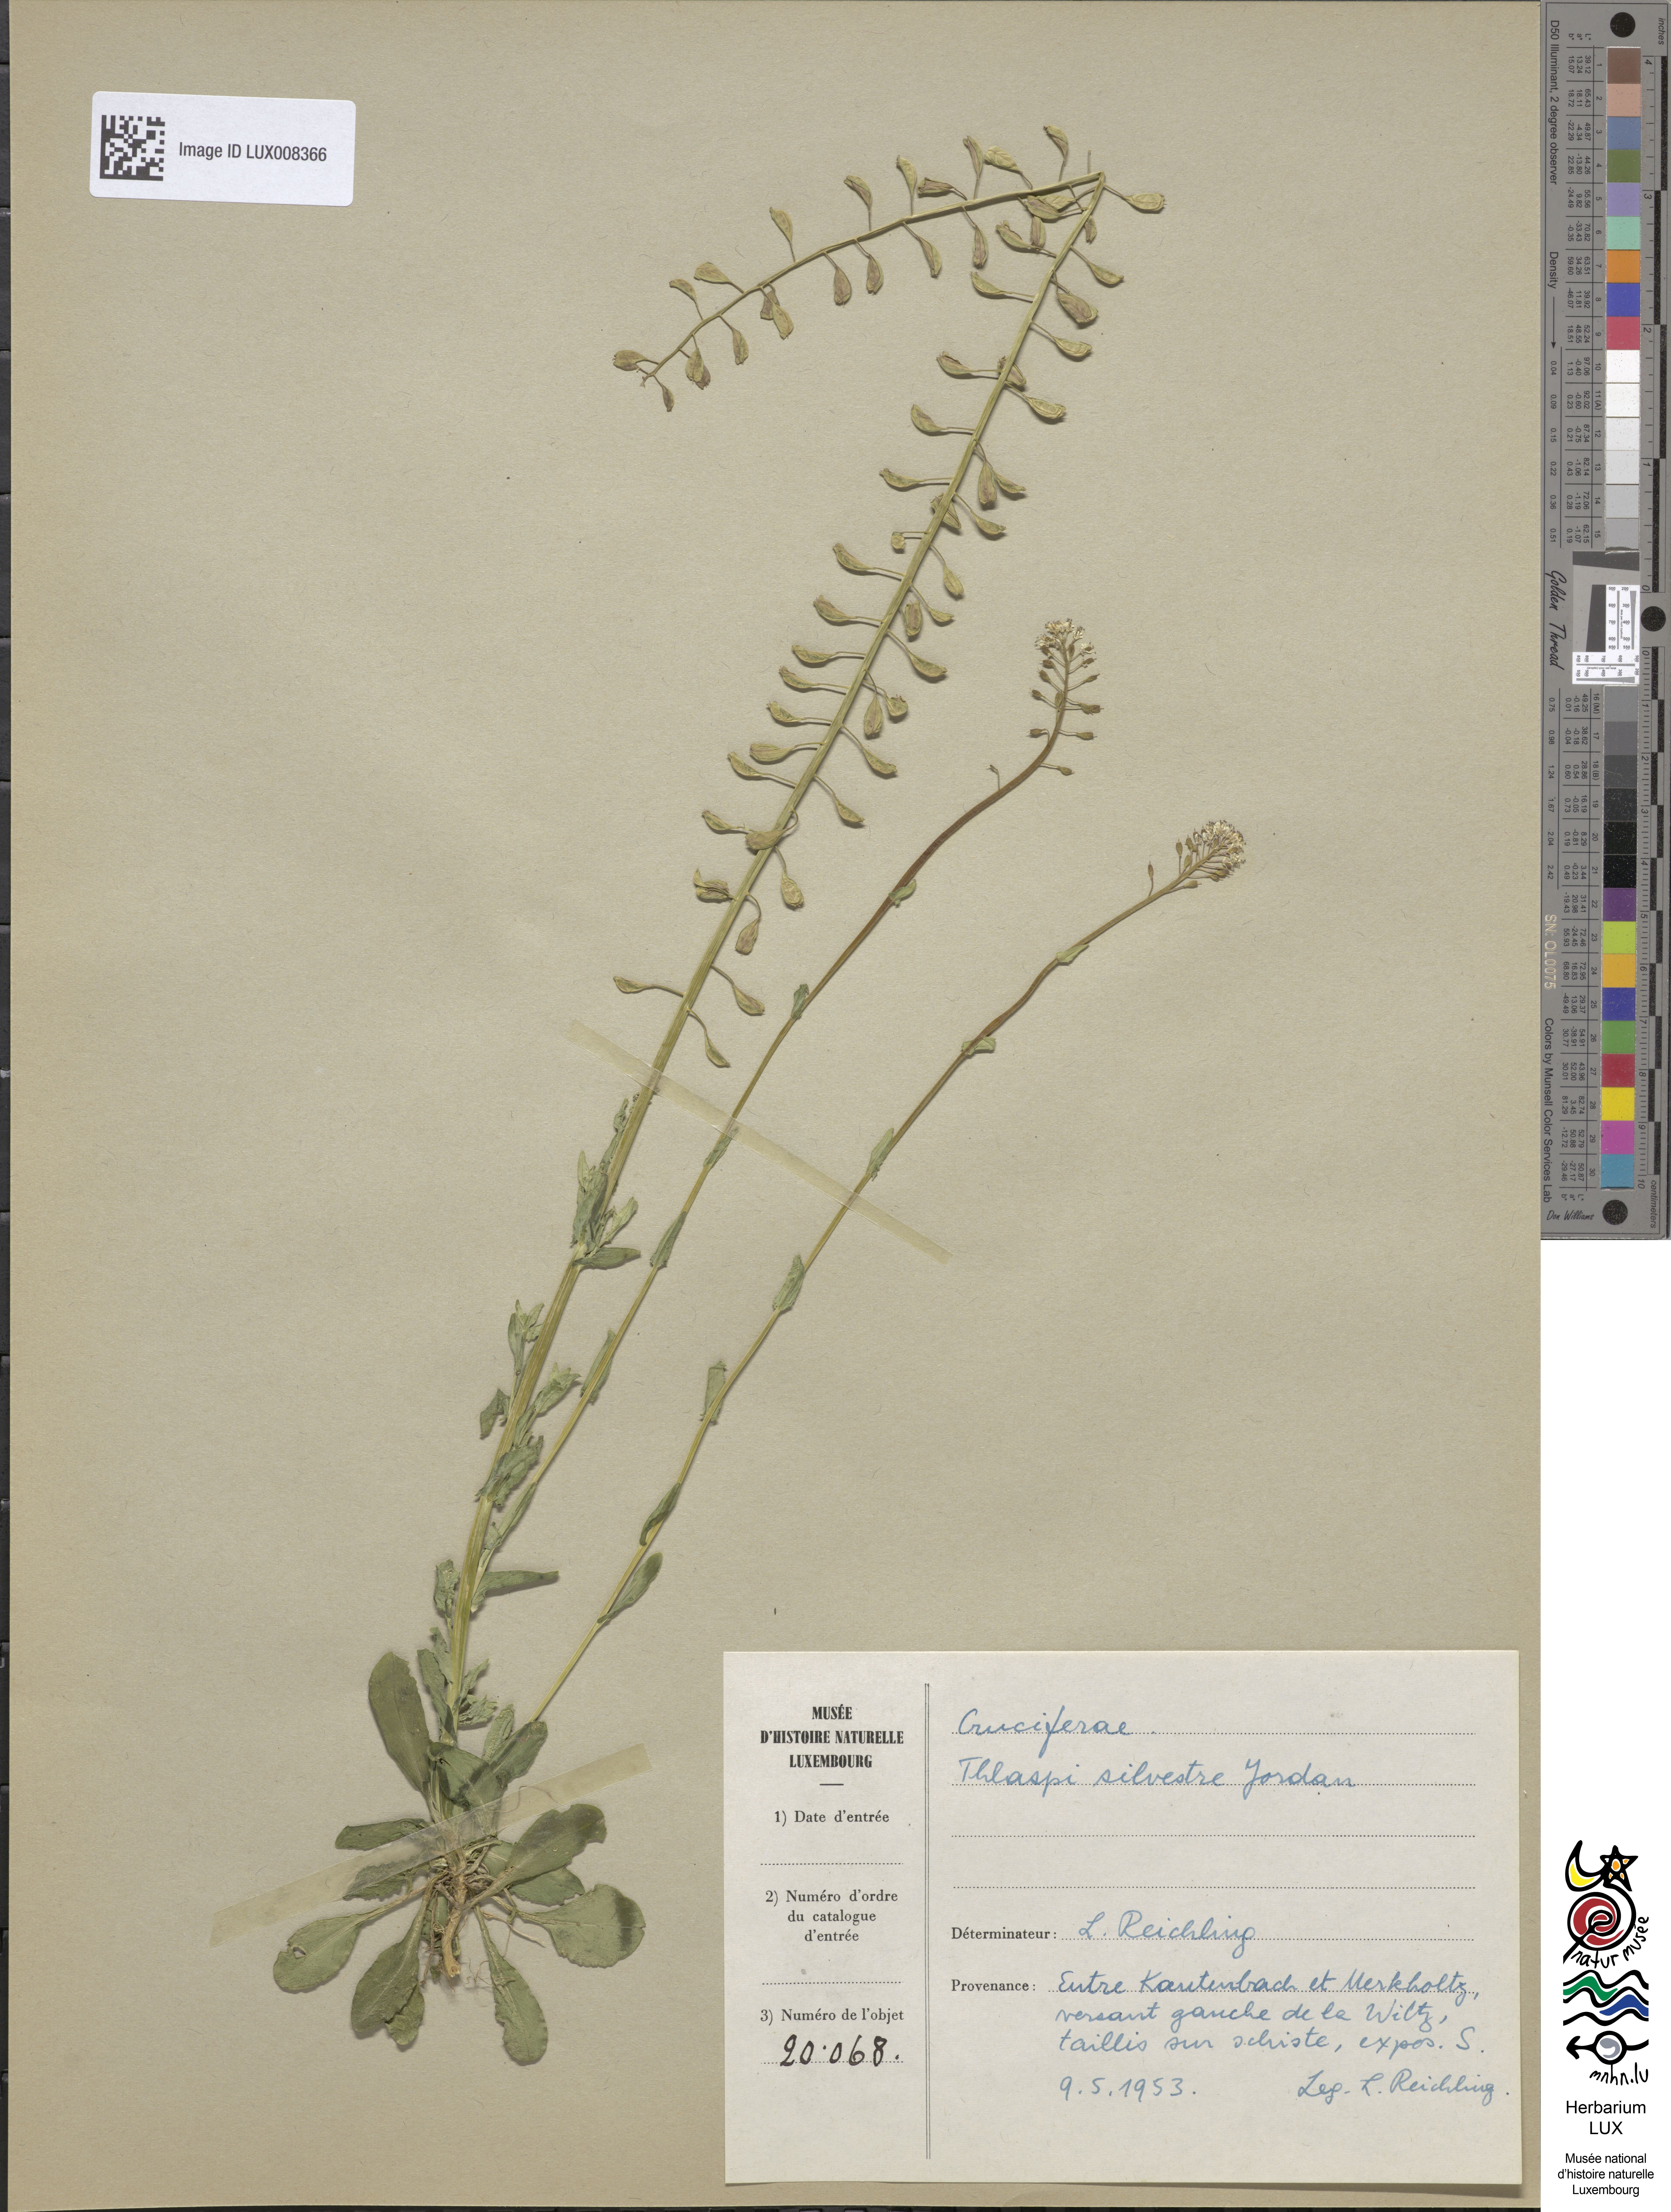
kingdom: Plantae
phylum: Tracheophyta
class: Magnoliopsida
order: Brassicales
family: Brassicaceae
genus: Noccaea
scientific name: Noccaea caerulescens
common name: Alpine pennycress
